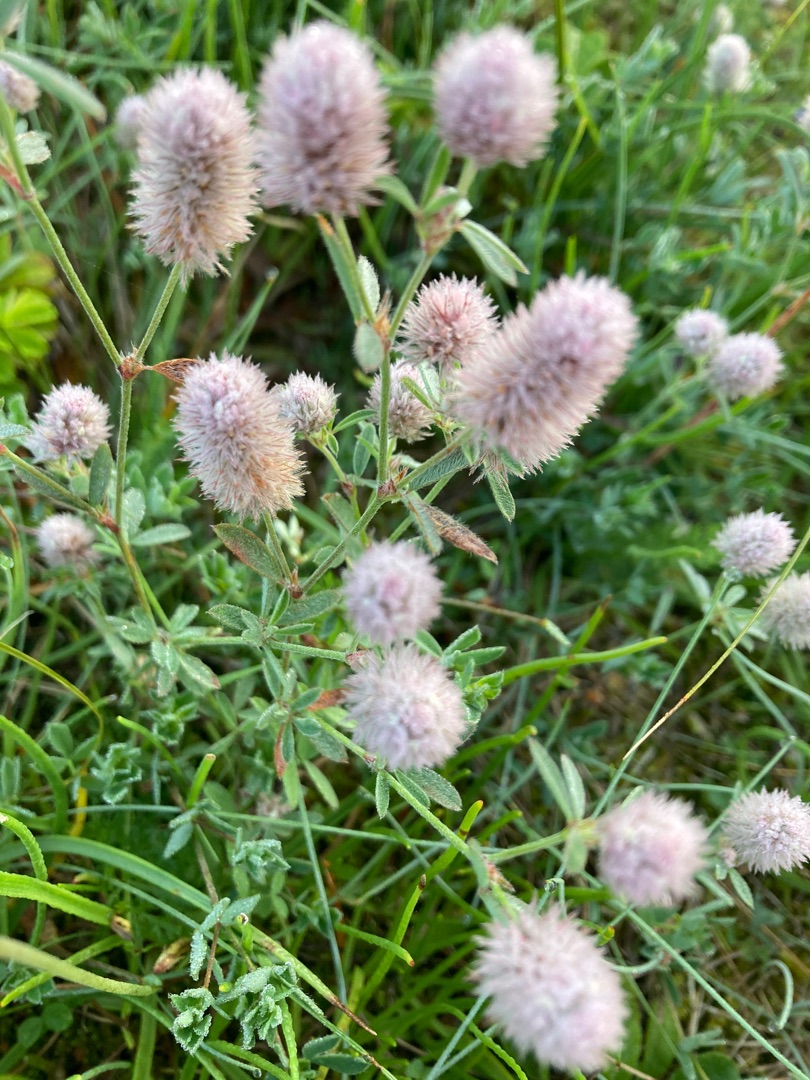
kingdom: Plantae
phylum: Tracheophyta
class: Magnoliopsida
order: Fabales
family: Fabaceae
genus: Trifolium
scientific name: Trifolium arvense
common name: Hare-kløver
